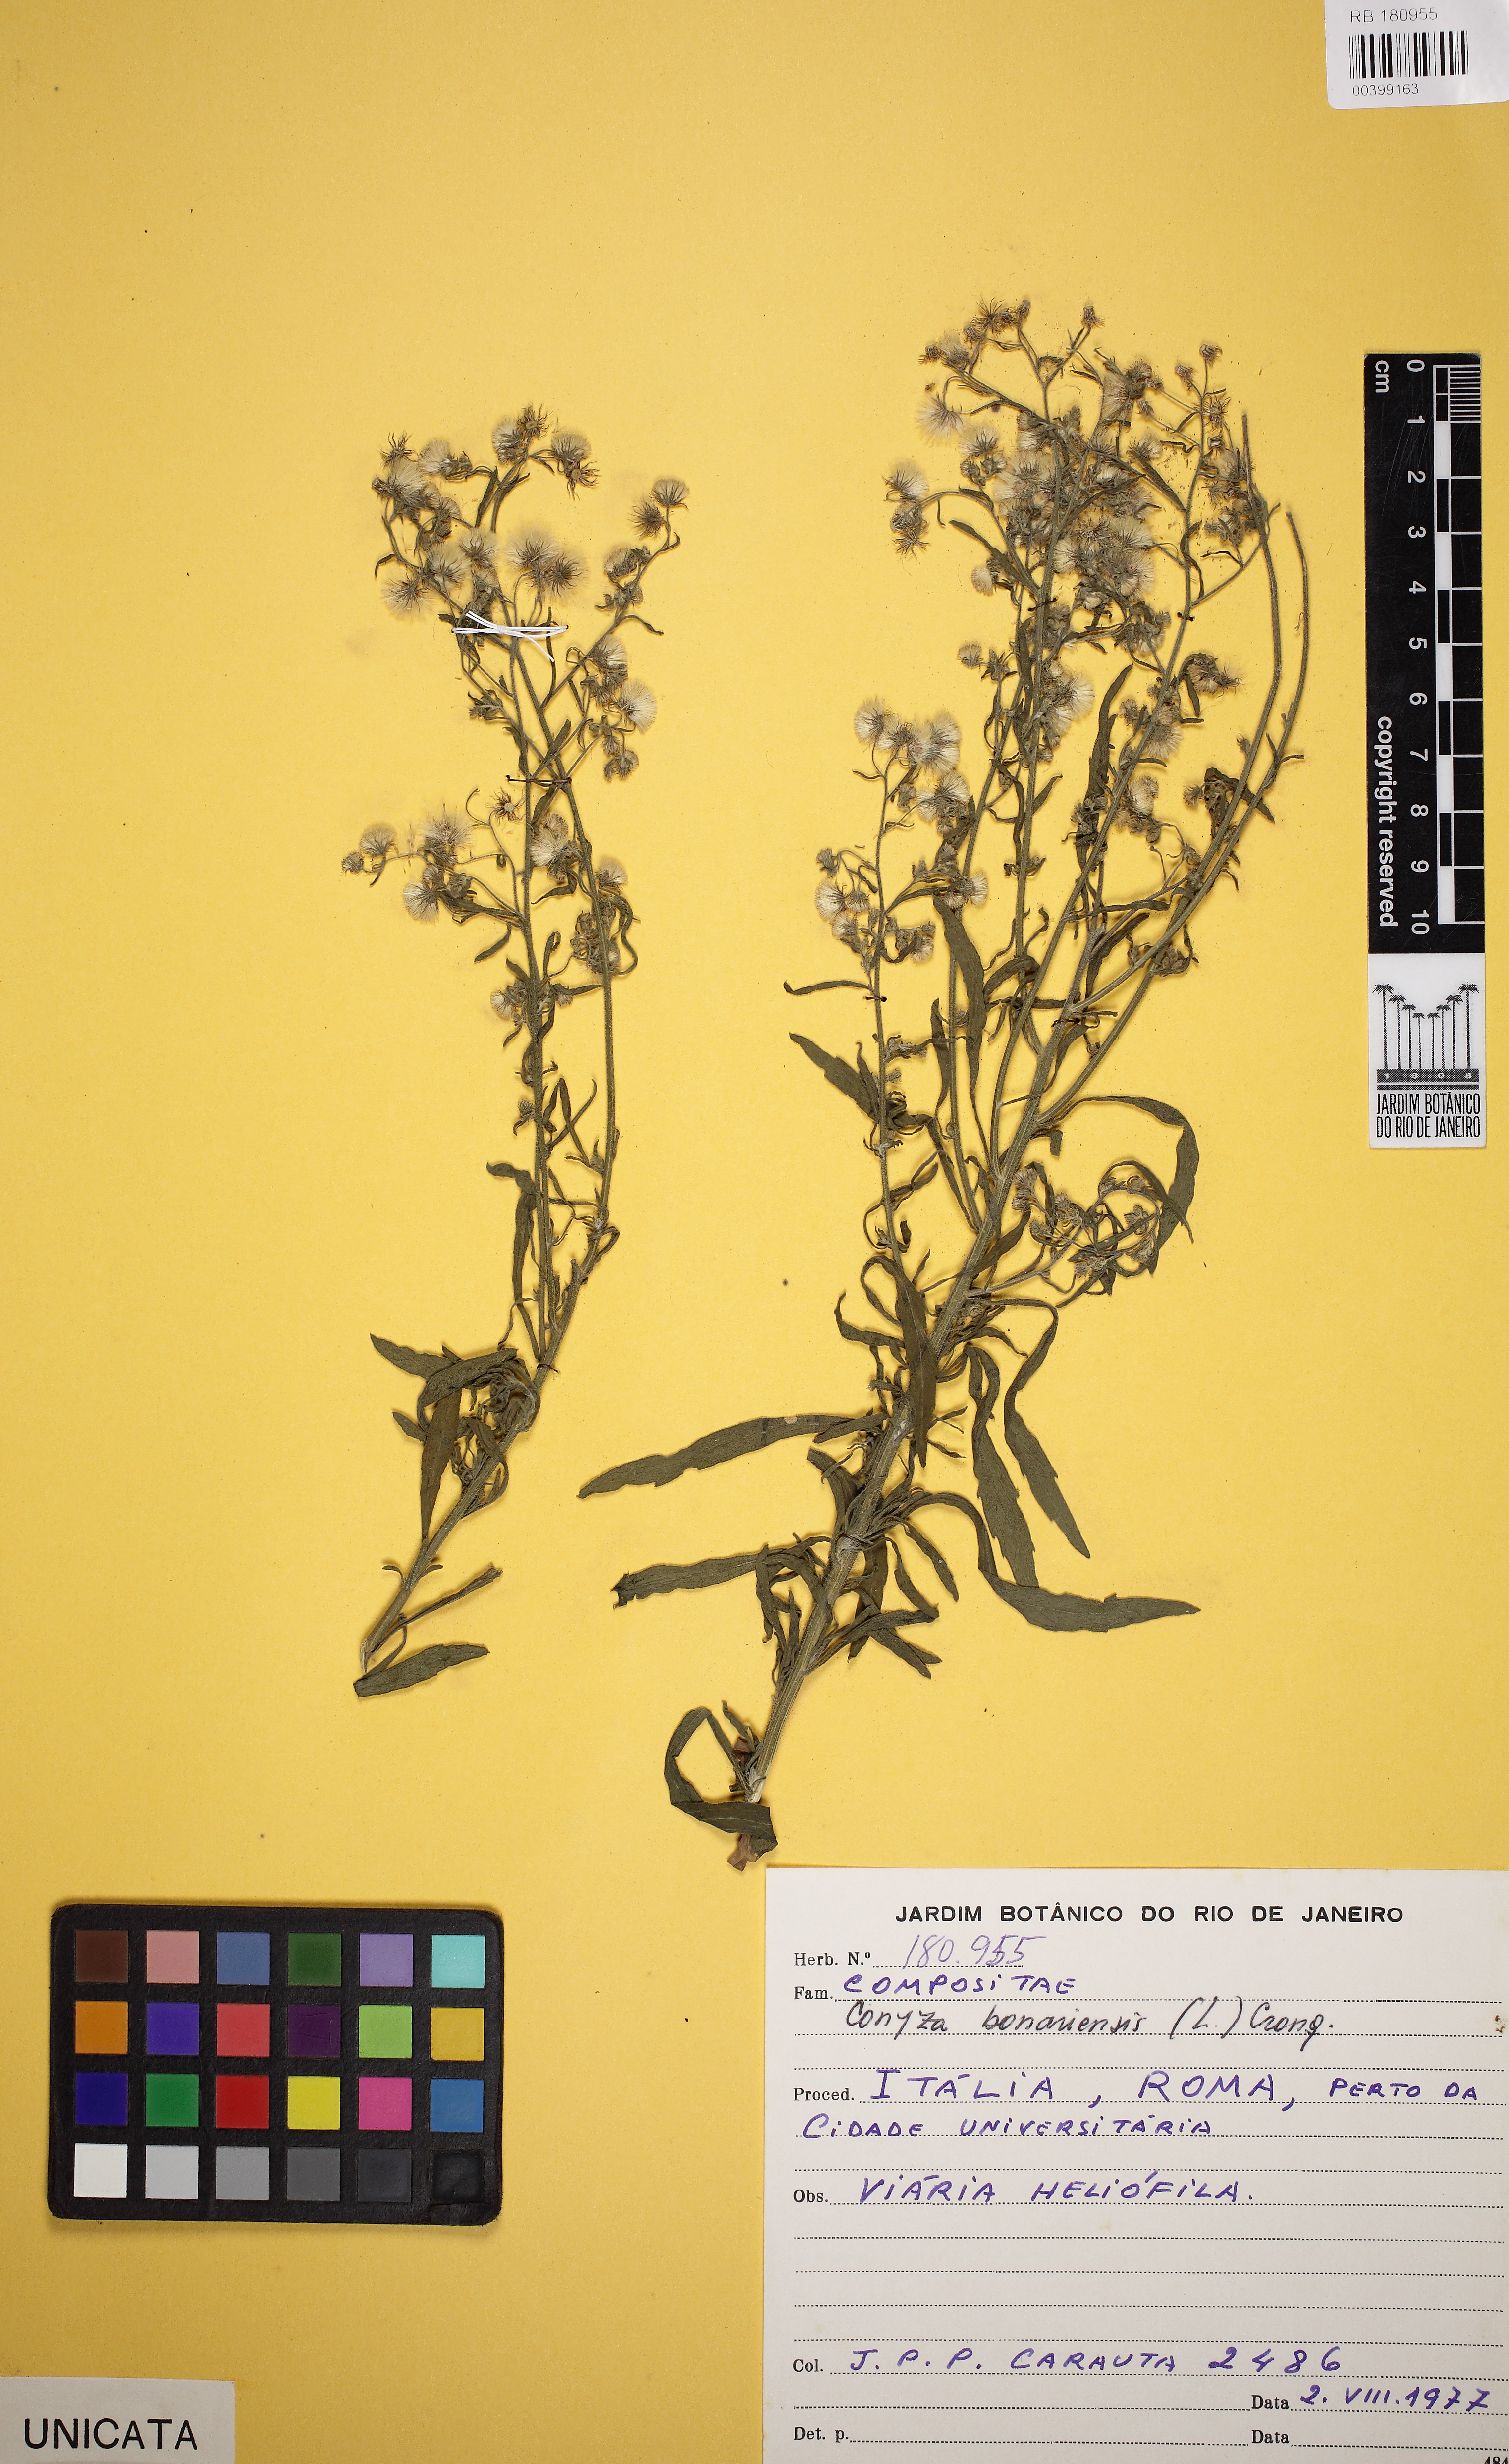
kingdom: Plantae
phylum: Tracheophyta
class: Magnoliopsida
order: Asterales
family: Asteraceae
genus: Erigeron
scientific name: Erigeron bonariensis
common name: Argentine fleabane
